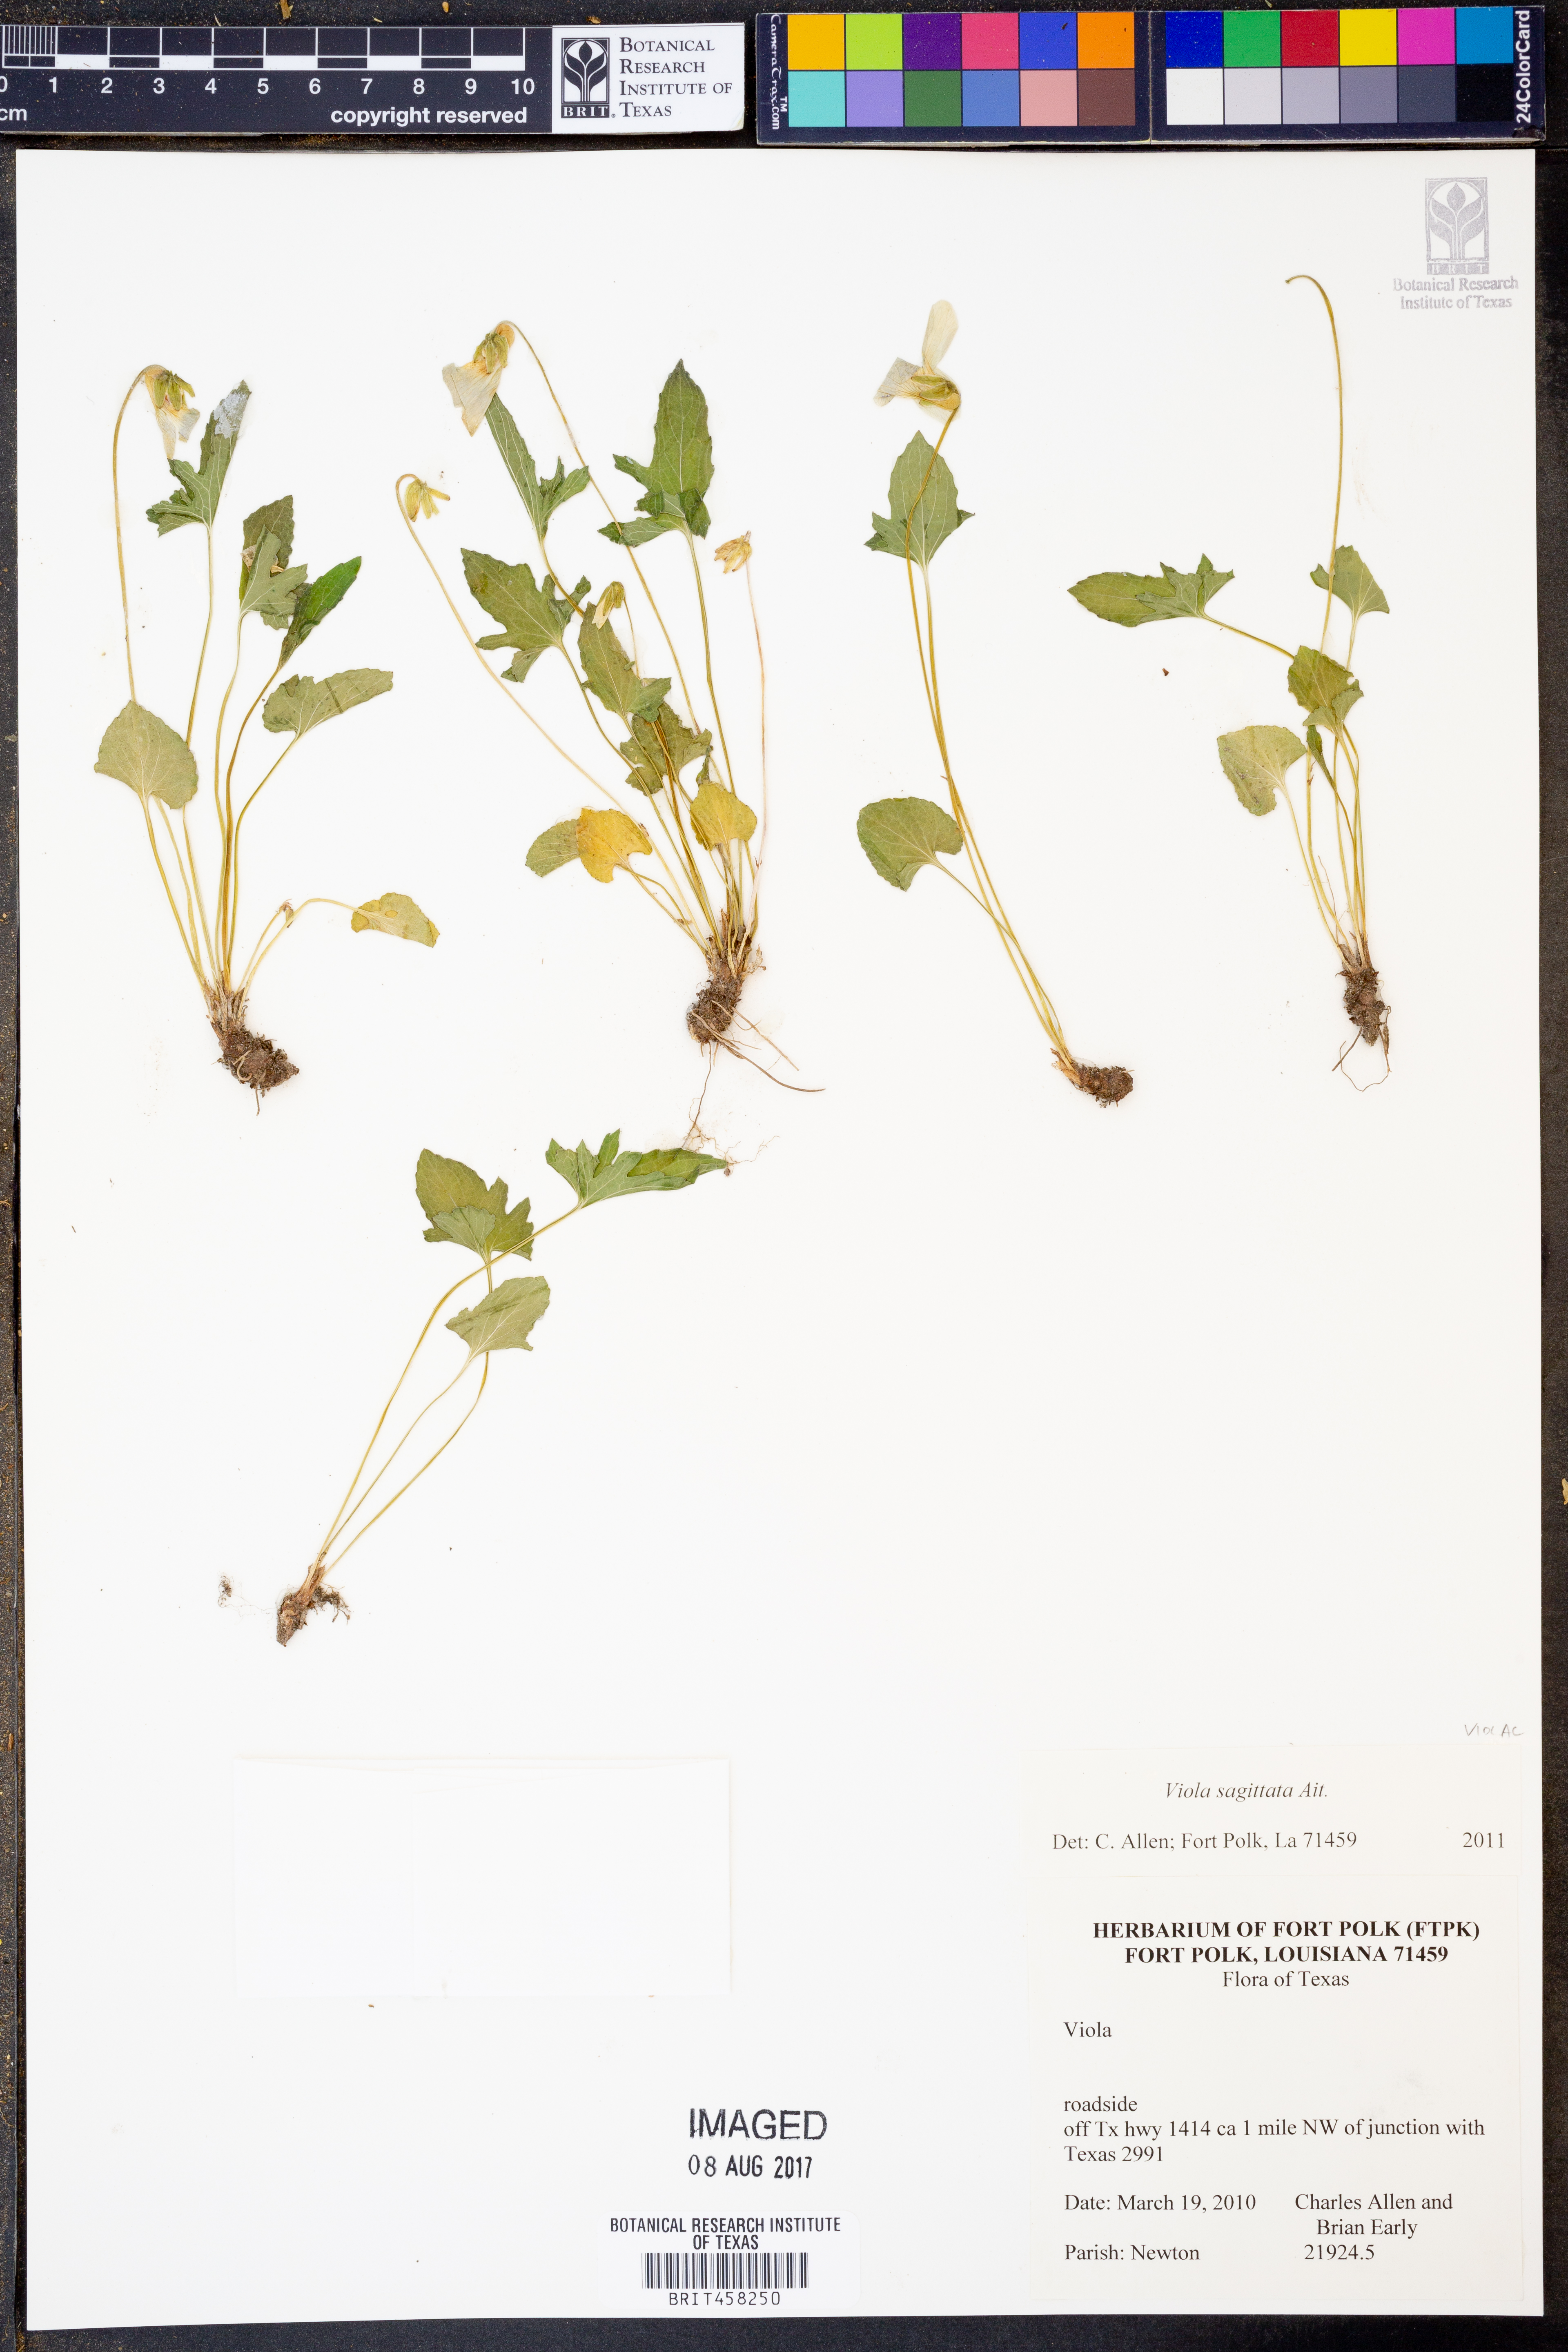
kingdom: Plantae
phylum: Tracheophyta
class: Magnoliopsida
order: Malpighiales
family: Violaceae
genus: Viola
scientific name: Viola sagittata
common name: Arrowhead violet
